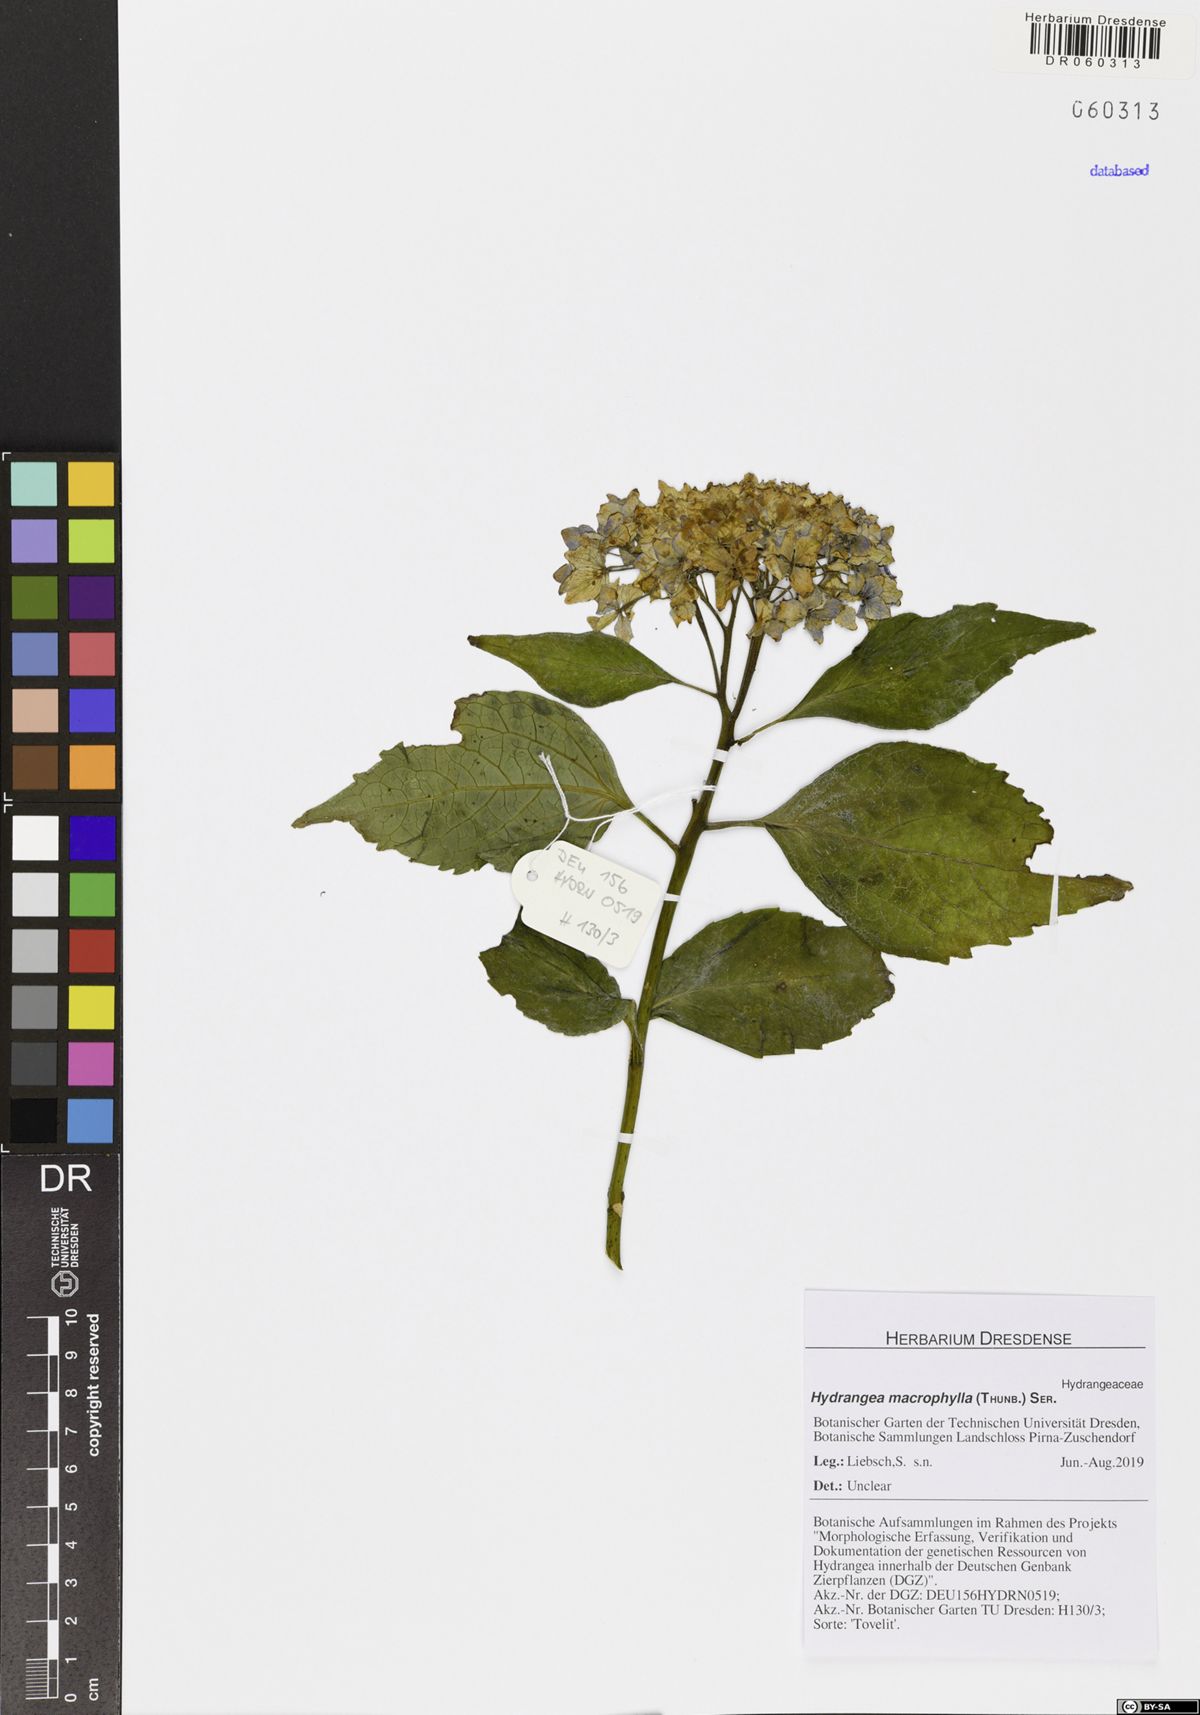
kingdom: Plantae
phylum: Tracheophyta
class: Magnoliopsida
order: Cornales
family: Hydrangeaceae
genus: Hydrangea
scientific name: Hydrangea macrophylla
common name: Hydrangea
